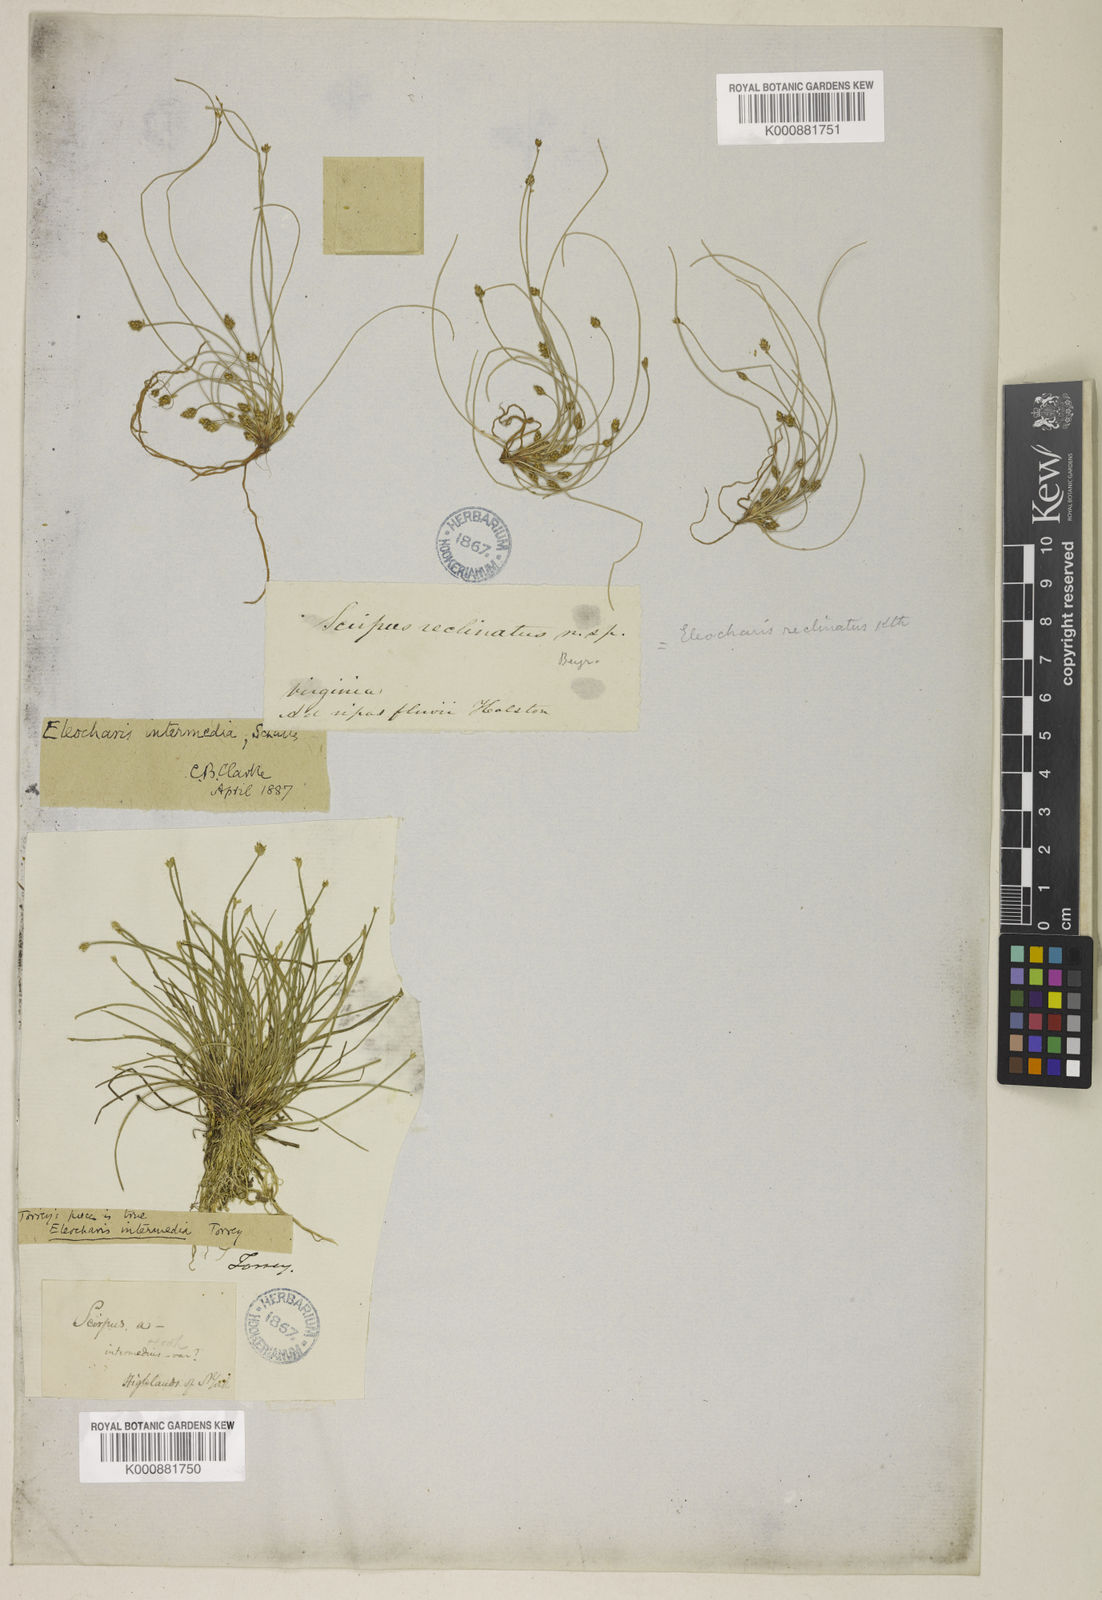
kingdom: Plantae
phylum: Tracheophyta
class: Liliopsida
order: Poales
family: Cyperaceae
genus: Eleocharis
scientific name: Eleocharis intermedia
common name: Intermediate spikerush
